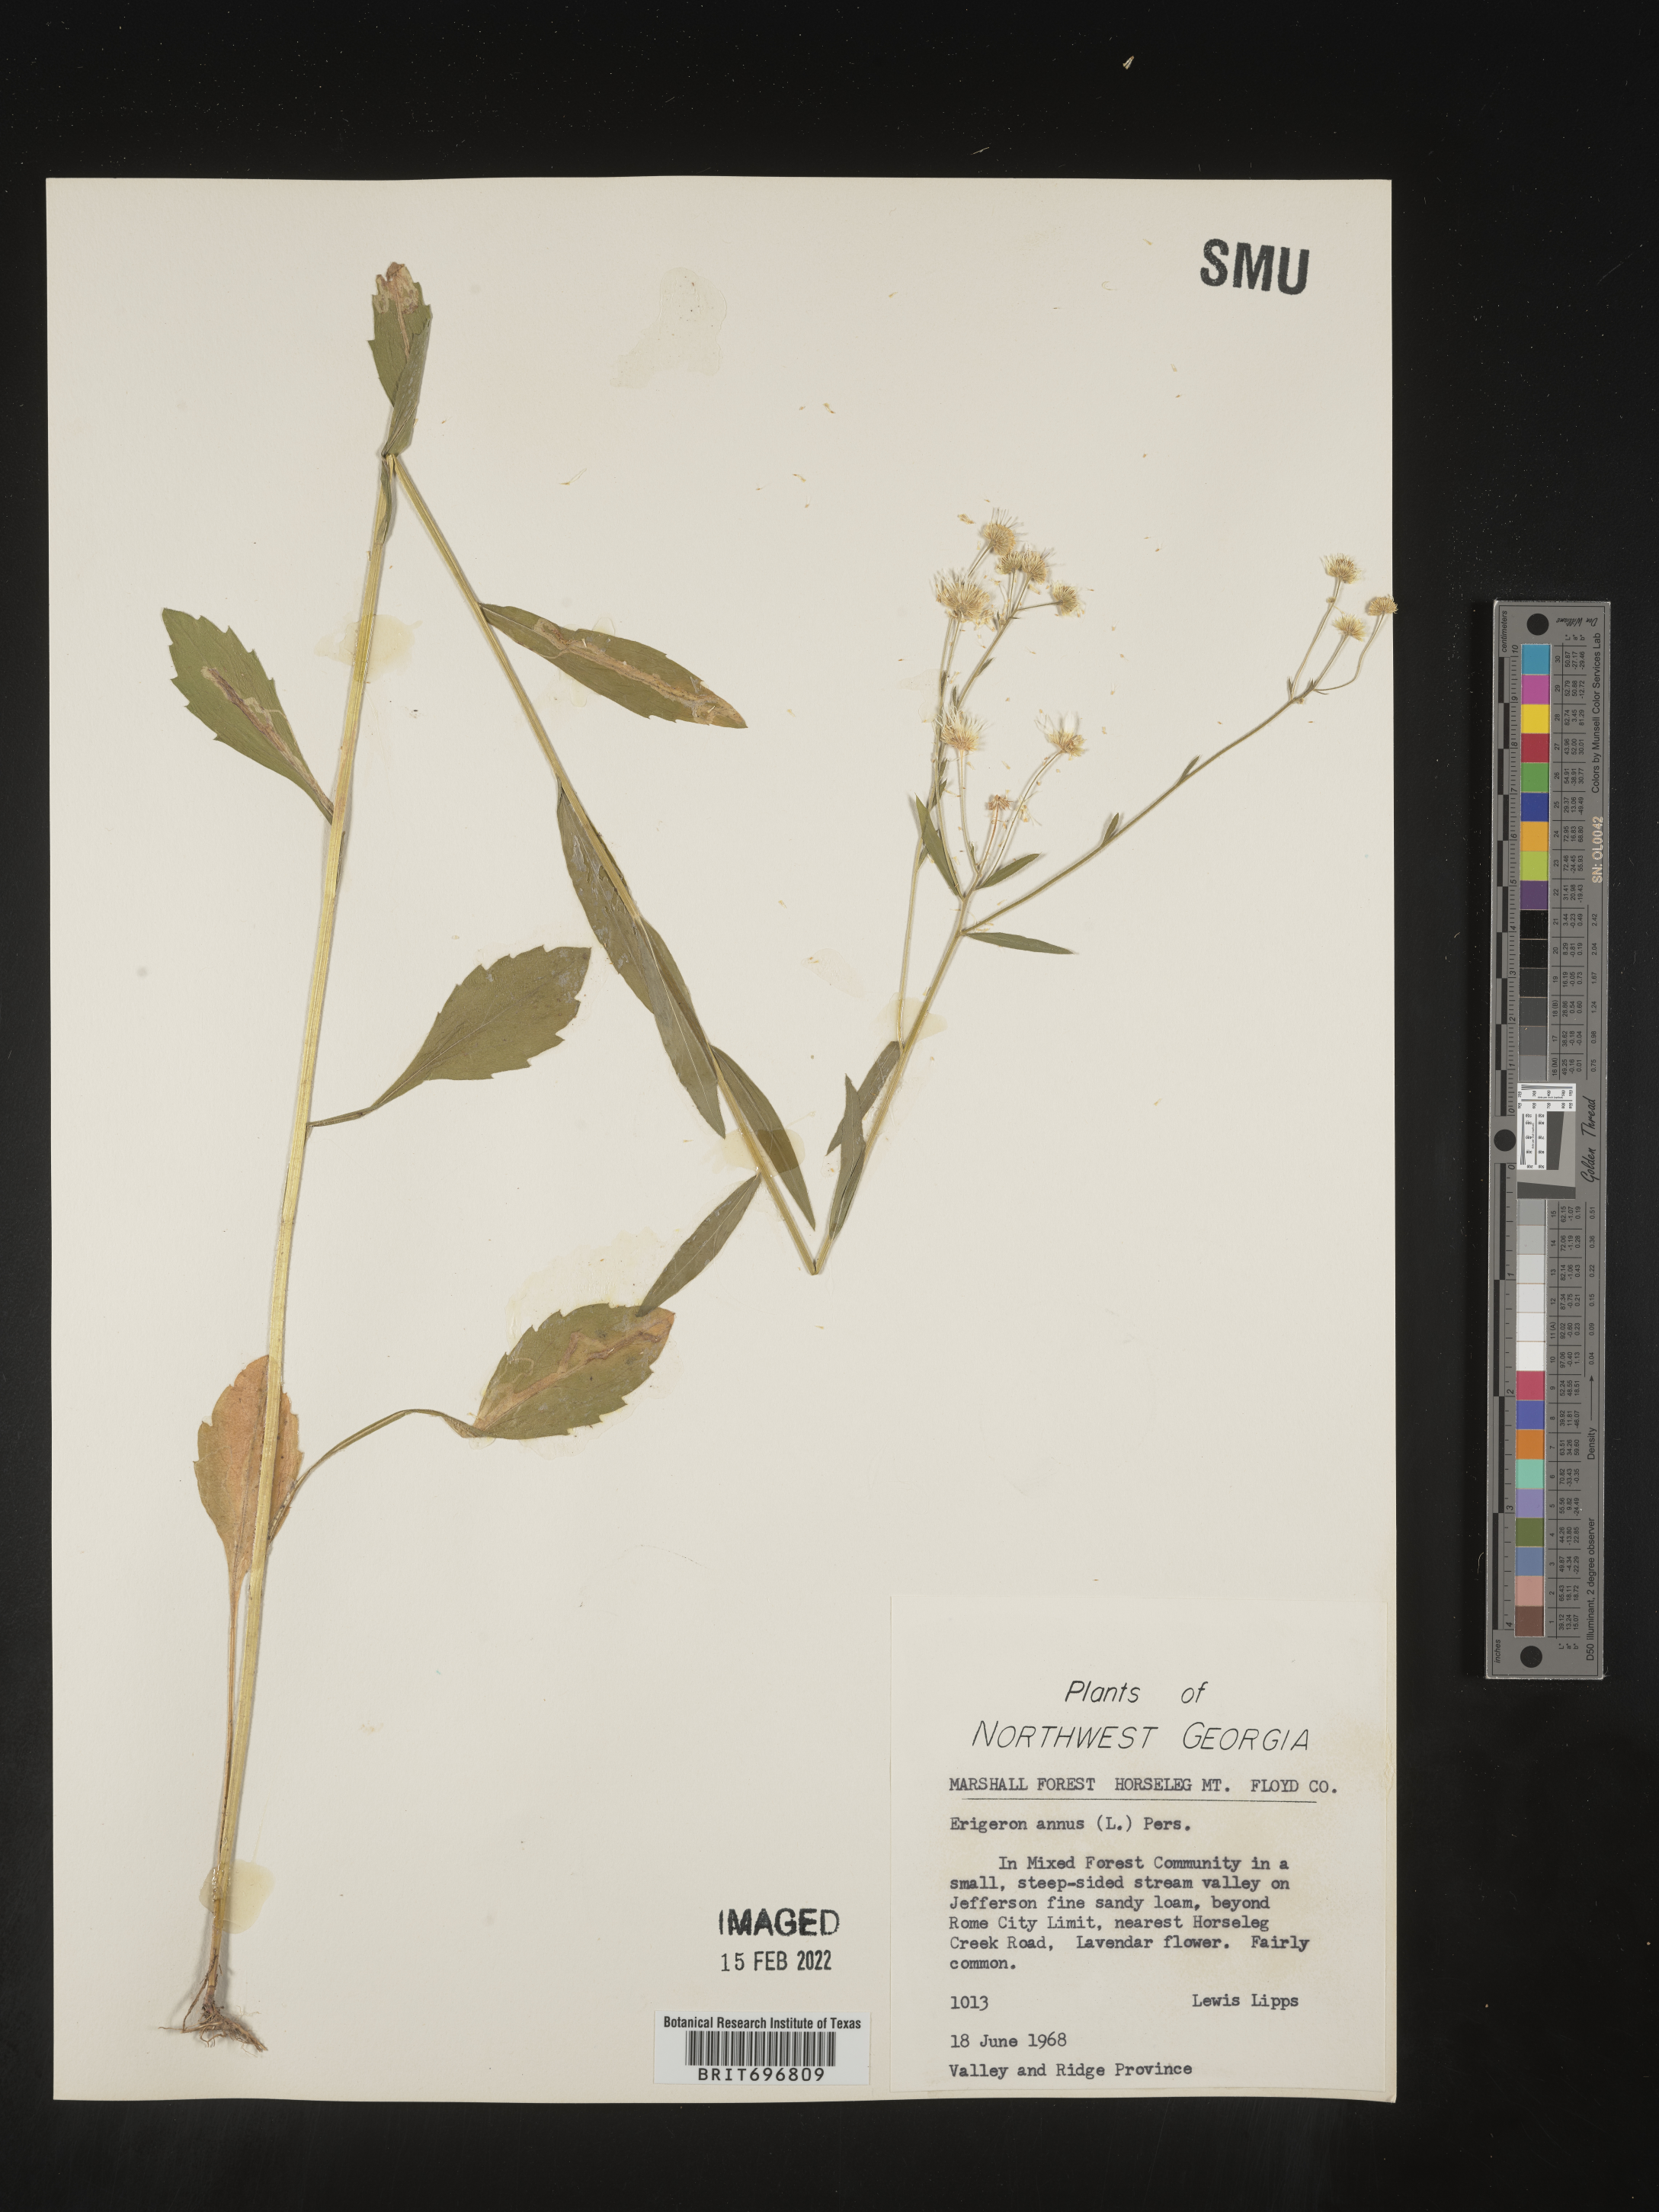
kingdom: Plantae
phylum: Tracheophyta
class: Magnoliopsida
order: Asterales
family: Asteraceae
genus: Erigeron
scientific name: Erigeron annuus
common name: Tall fleabane
